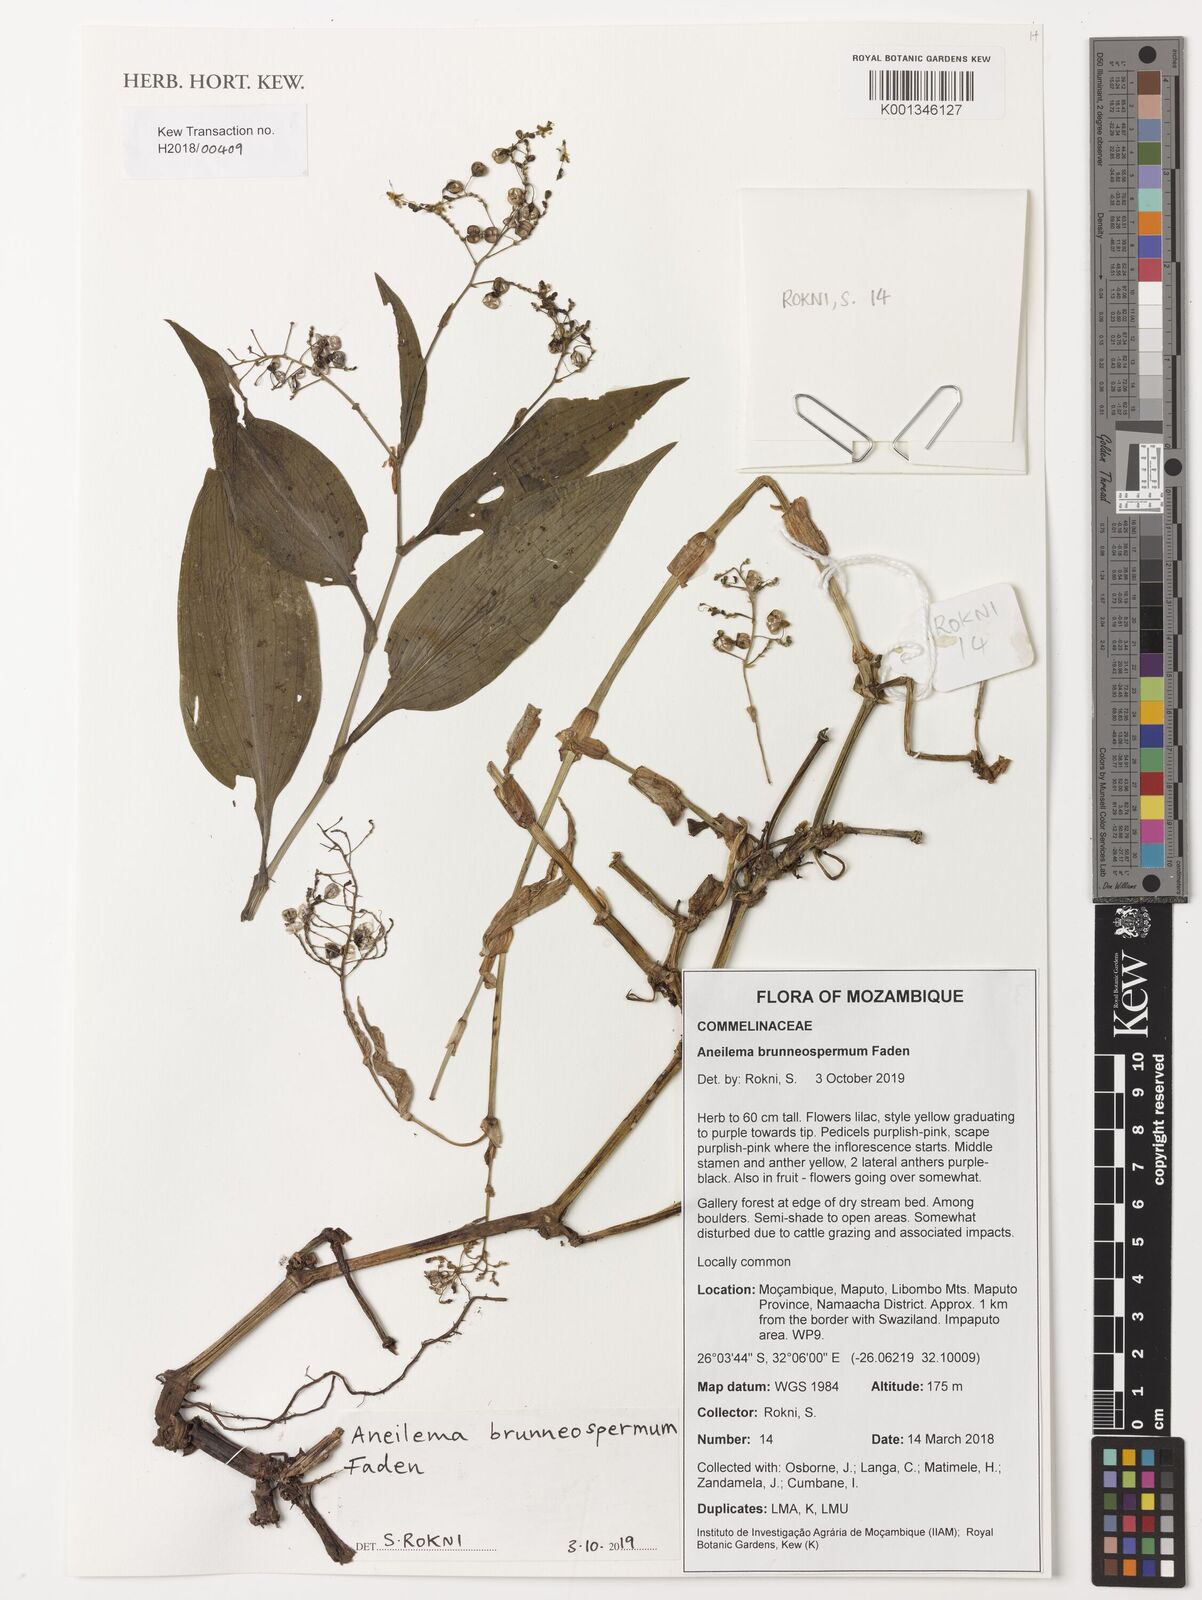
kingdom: Plantae
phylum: Tracheophyta
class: Liliopsida
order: Commelinales
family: Commelinaceae
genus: Aneilema
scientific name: Aneilema brunneospermum
